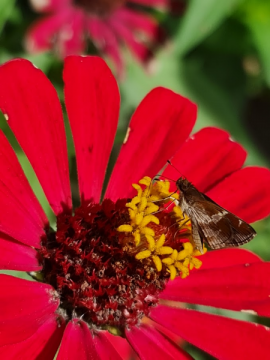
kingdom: Animalia
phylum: Arthropoda
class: Insecta
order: Lepidoptera
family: Hesperiidae
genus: Moeris
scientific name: Moeris crispinus
